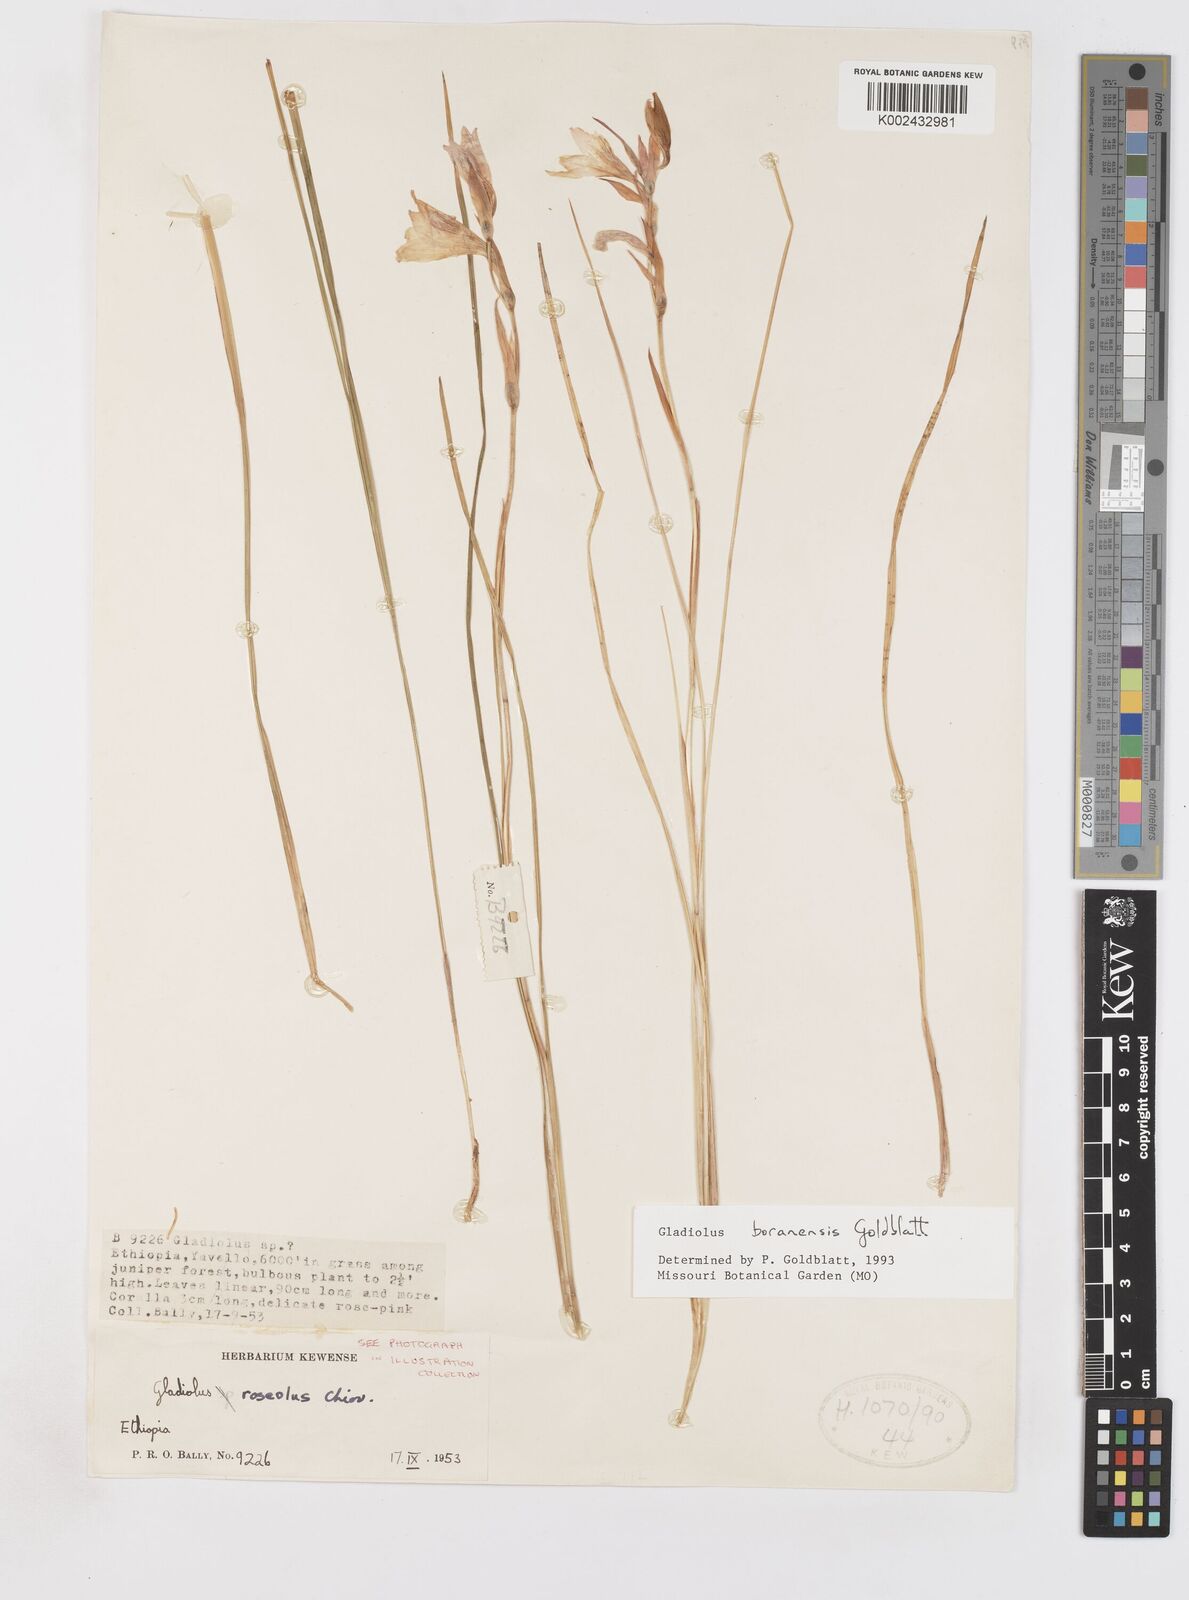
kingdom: Plantae
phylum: Tracheophyta
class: Liliopsida
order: Asparagales
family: Iridaceae
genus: Gladiolus
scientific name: Gladiolus boranensis
